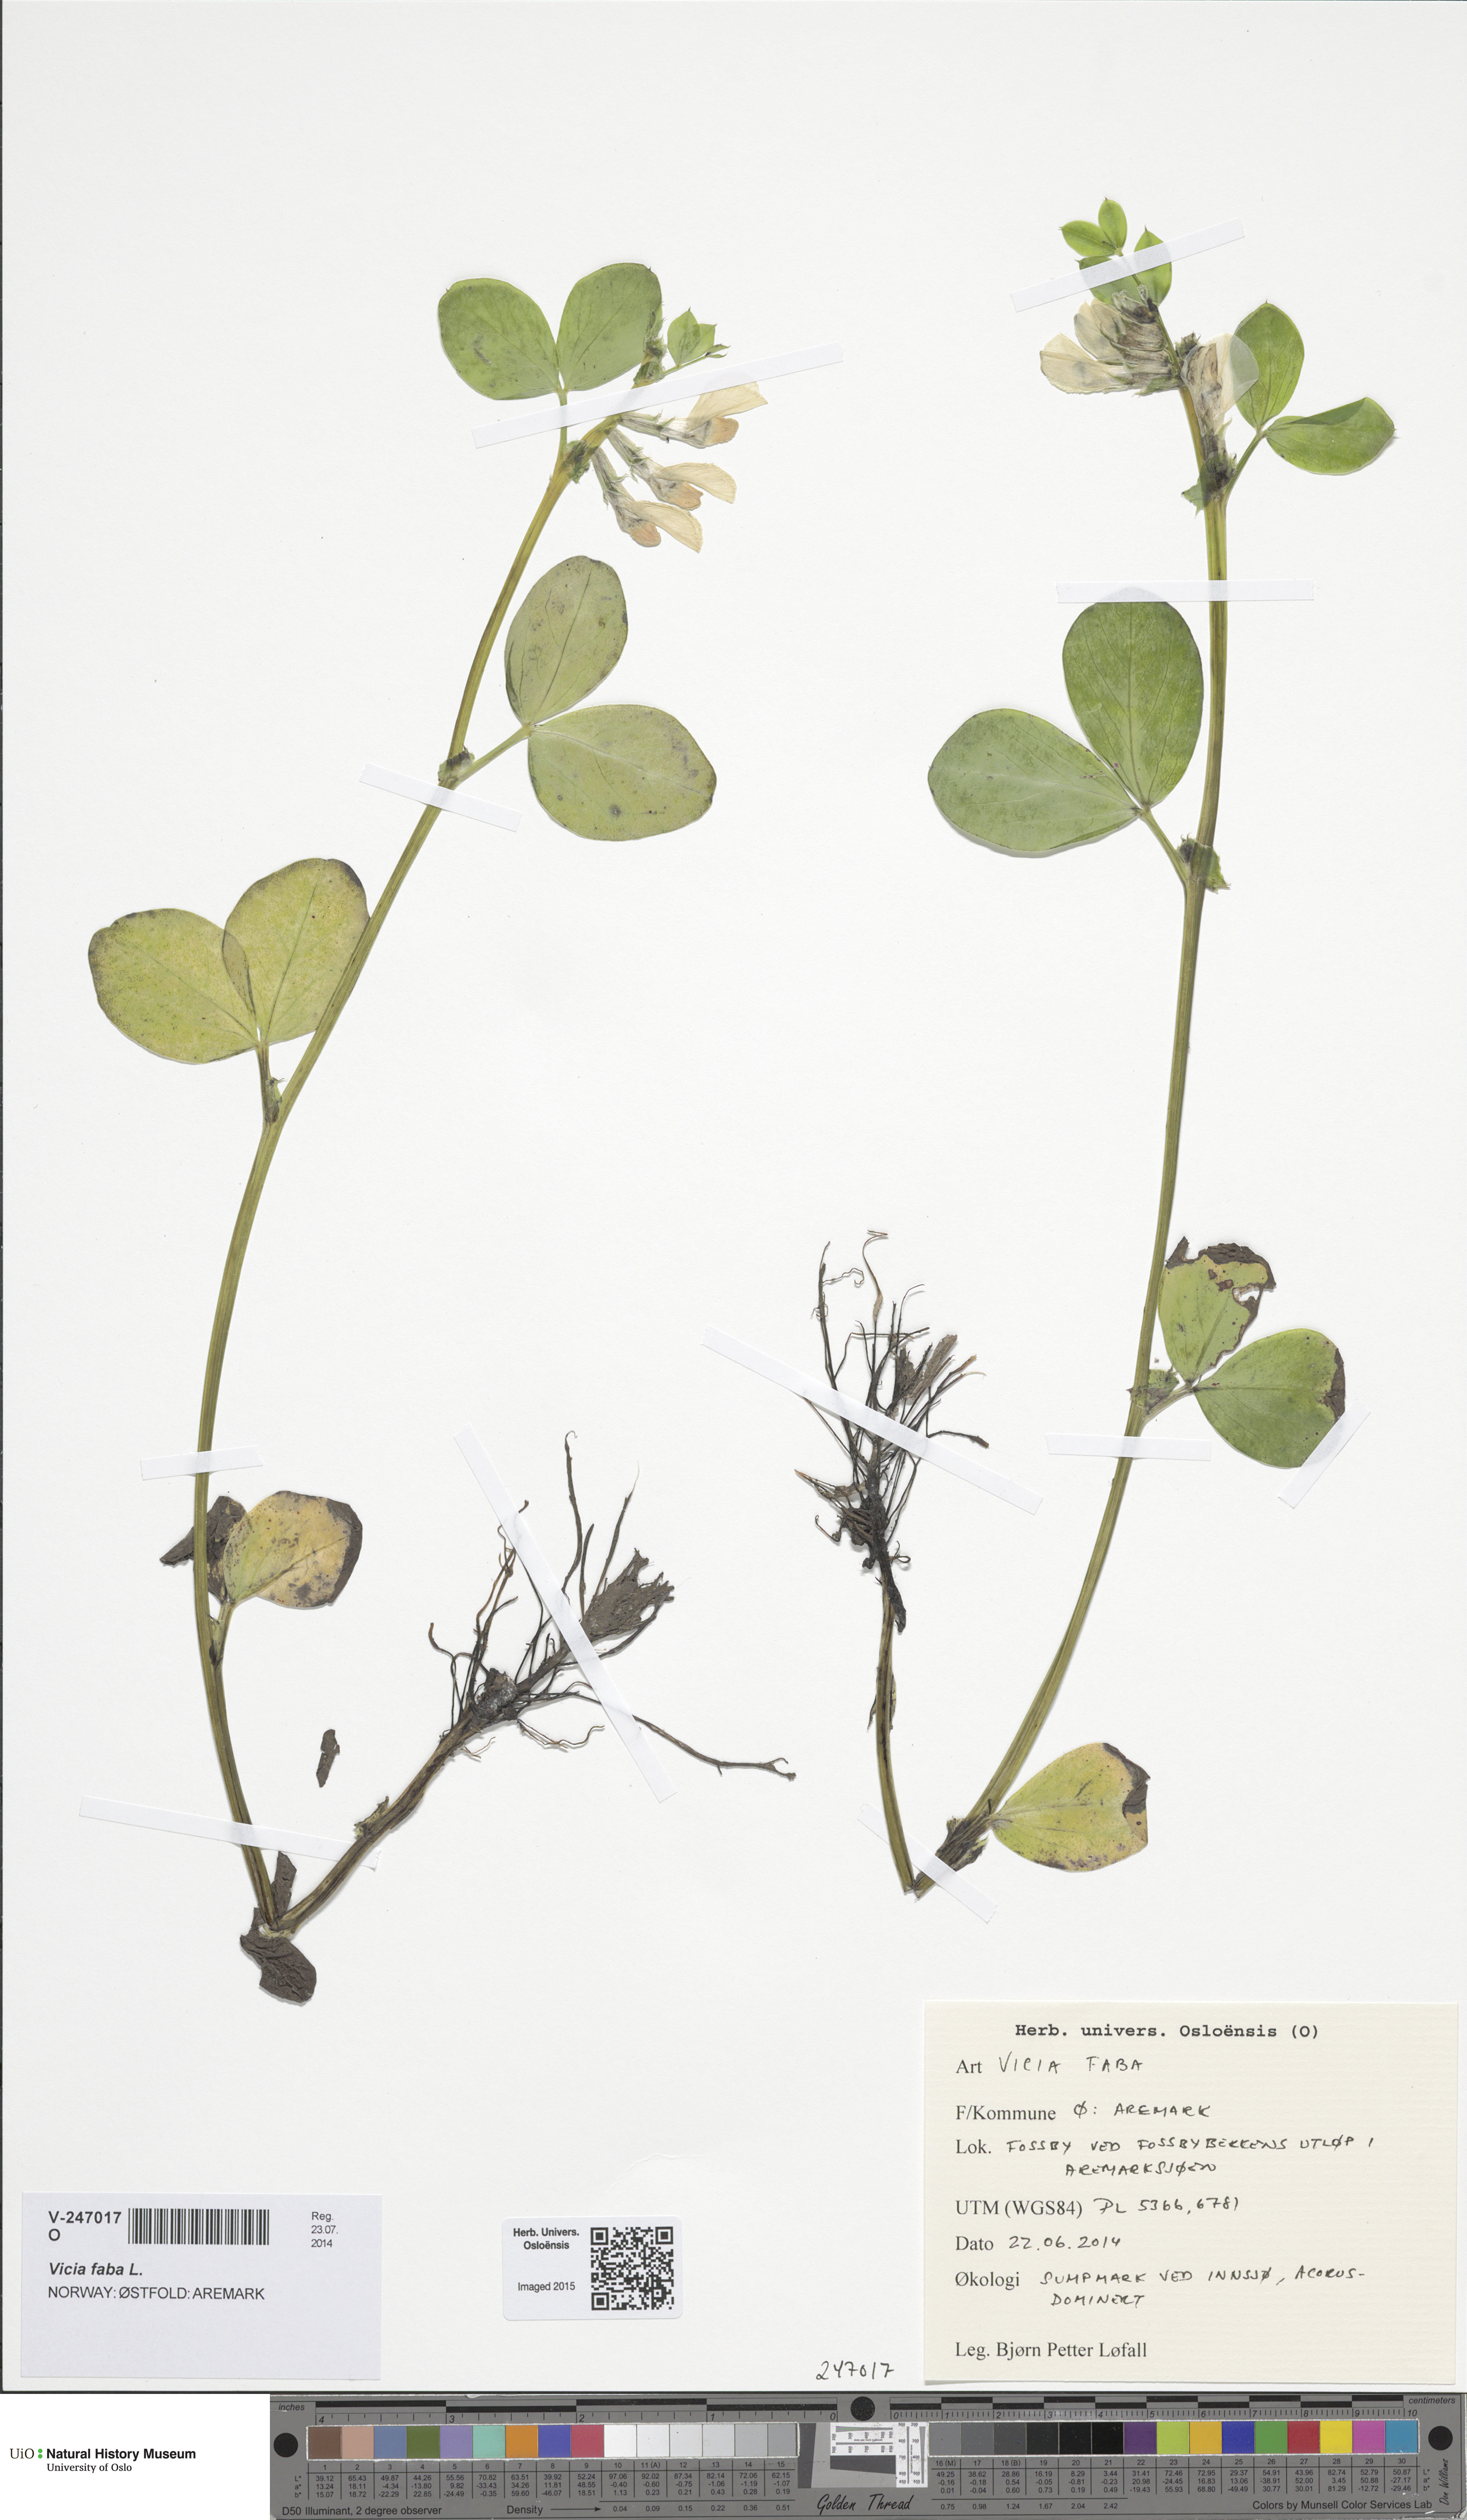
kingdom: Plantae
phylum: Tracheophyta
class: Magnoliopsida
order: Fabales
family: Fabaceae
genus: Vicia
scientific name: Vicia faba
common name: Broad bean
